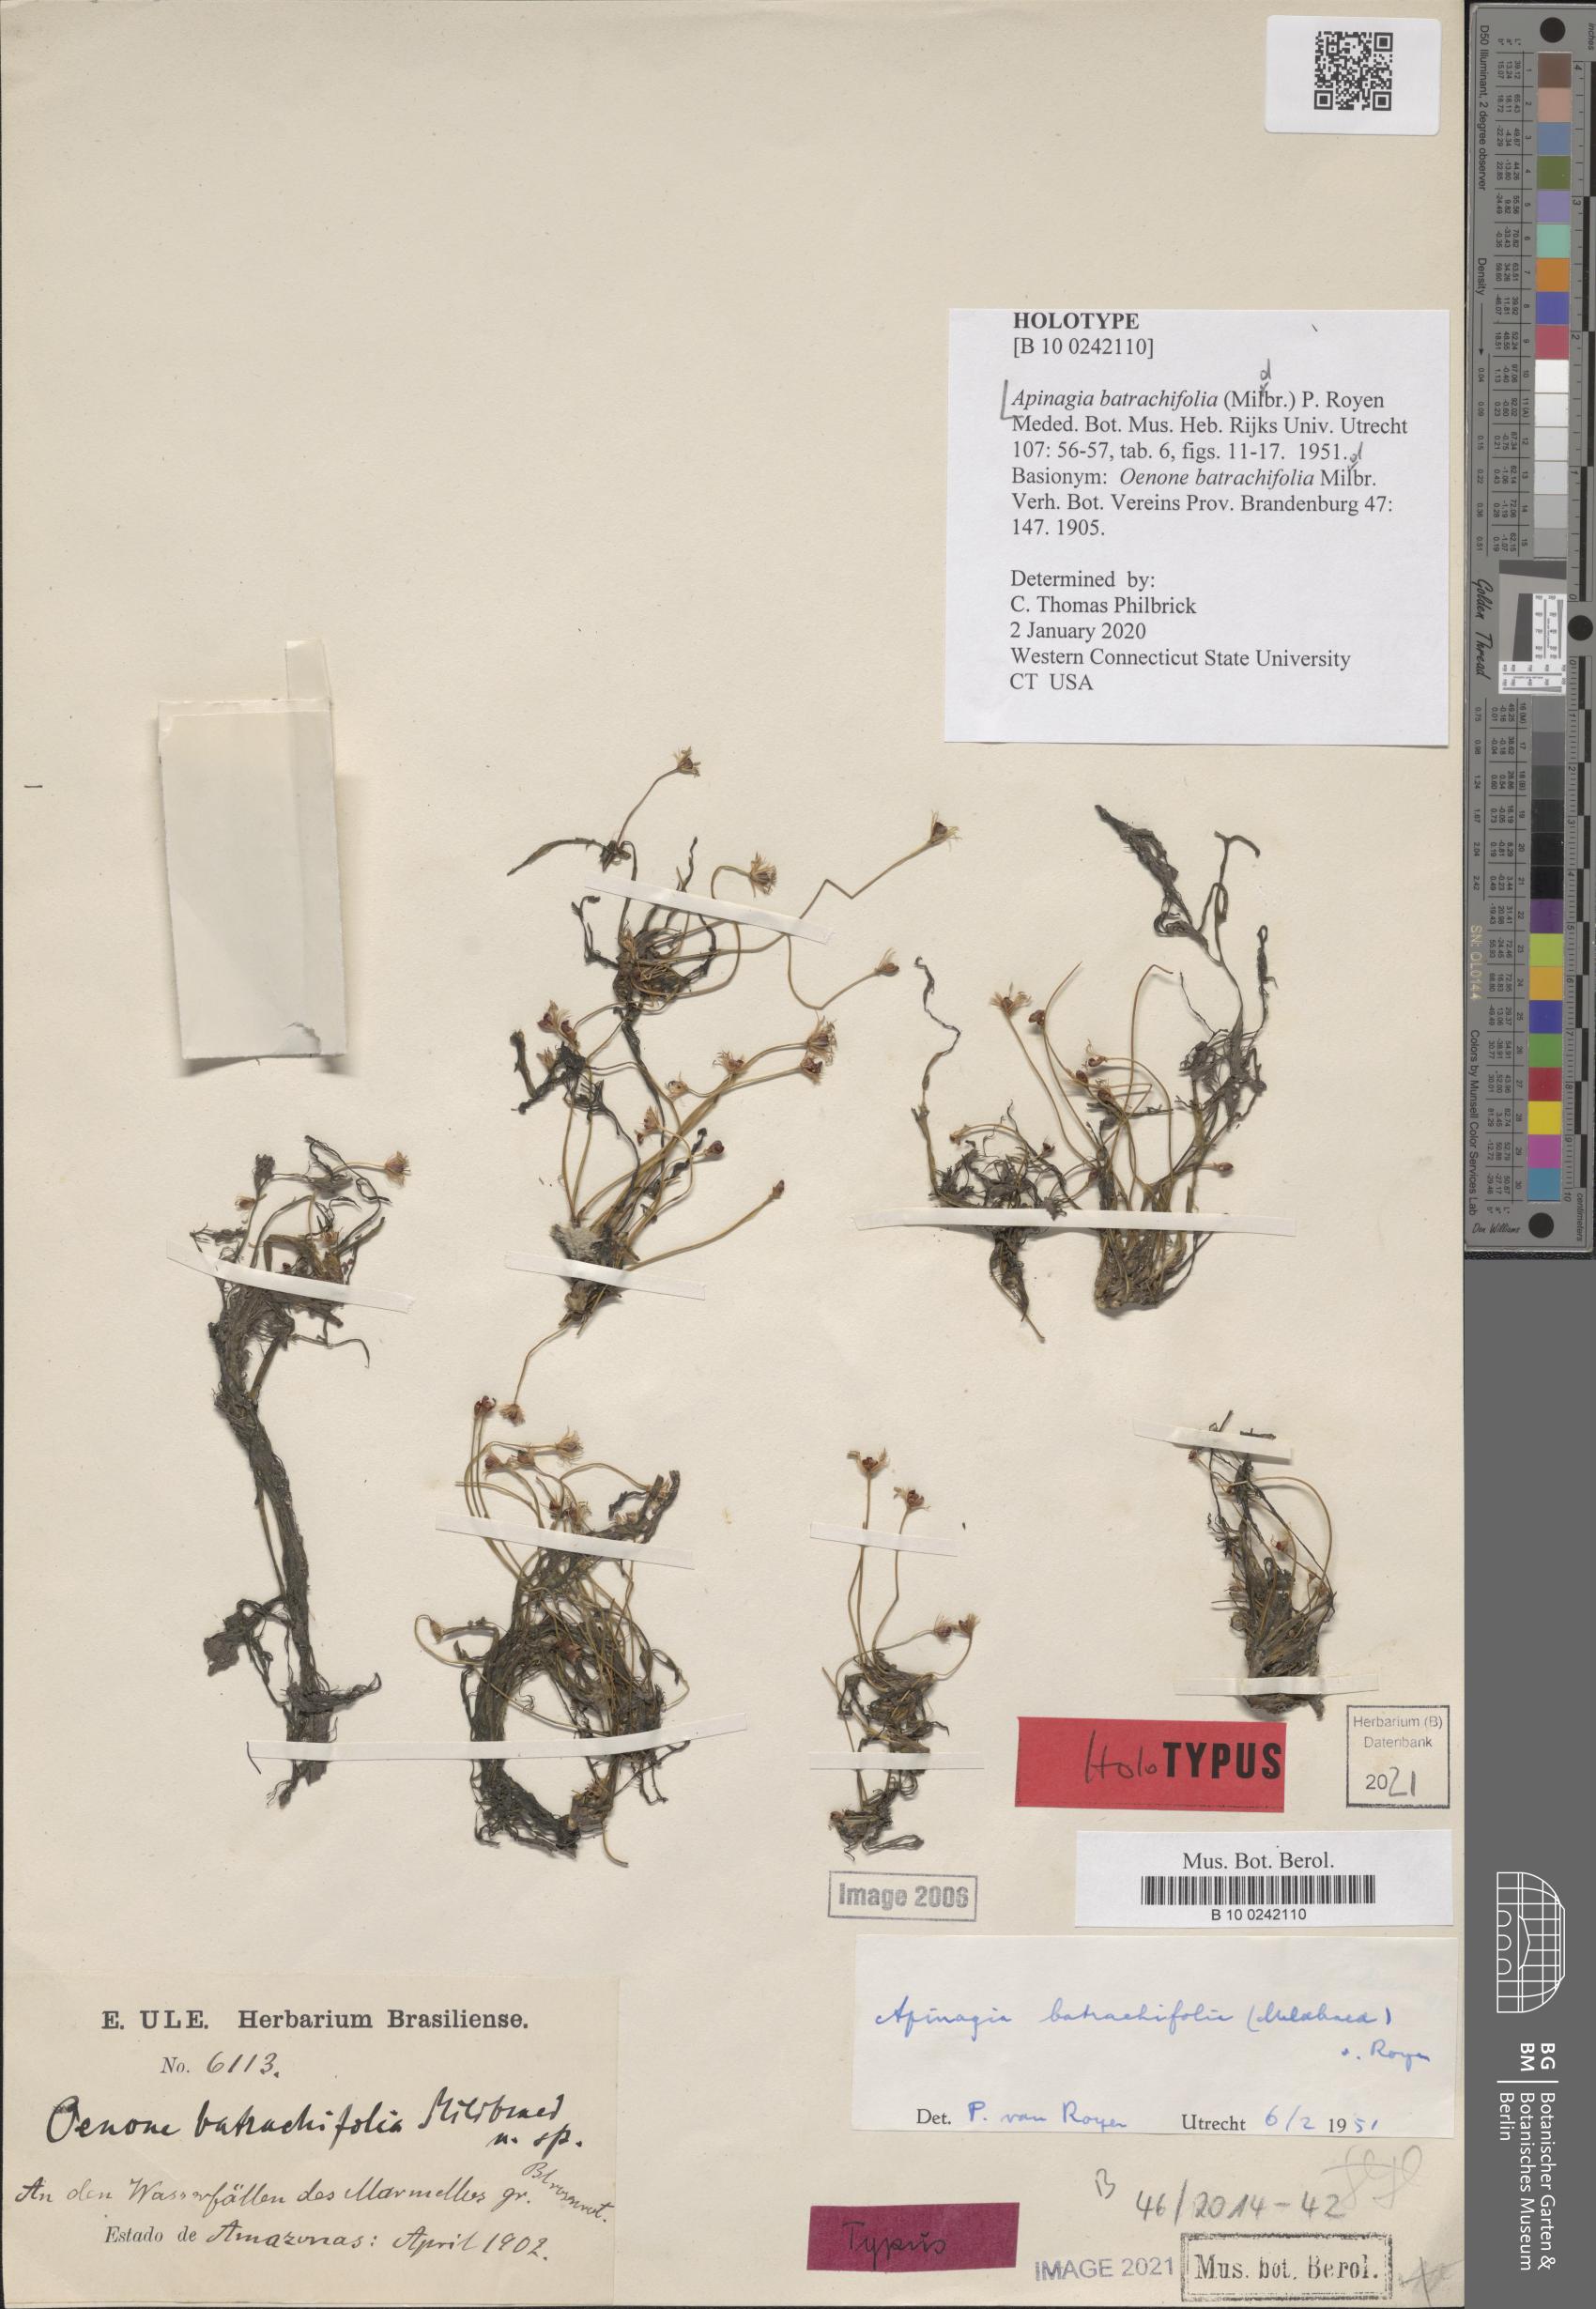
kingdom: Plantae
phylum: Tracheophyta
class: Magnoliopsida
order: Malpighiales
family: Podostemaceae
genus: Apinagia
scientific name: Apinagia batrachifolia
